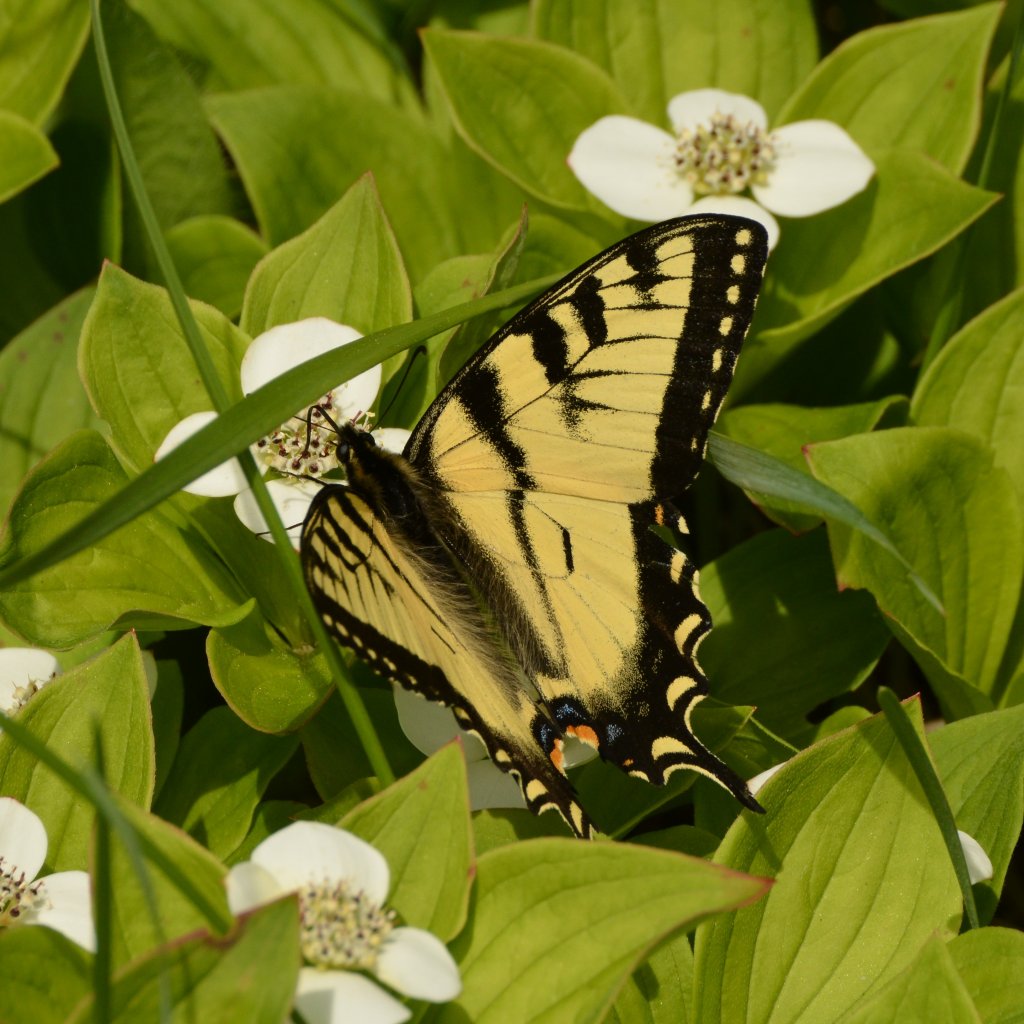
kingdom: Animalia
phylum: Arthropoda
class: Insecta
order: Lepidoptera
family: Papilionidae
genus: Pterourus
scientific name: Pterourus canadensis
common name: Canadian Tiger Swallowtail
